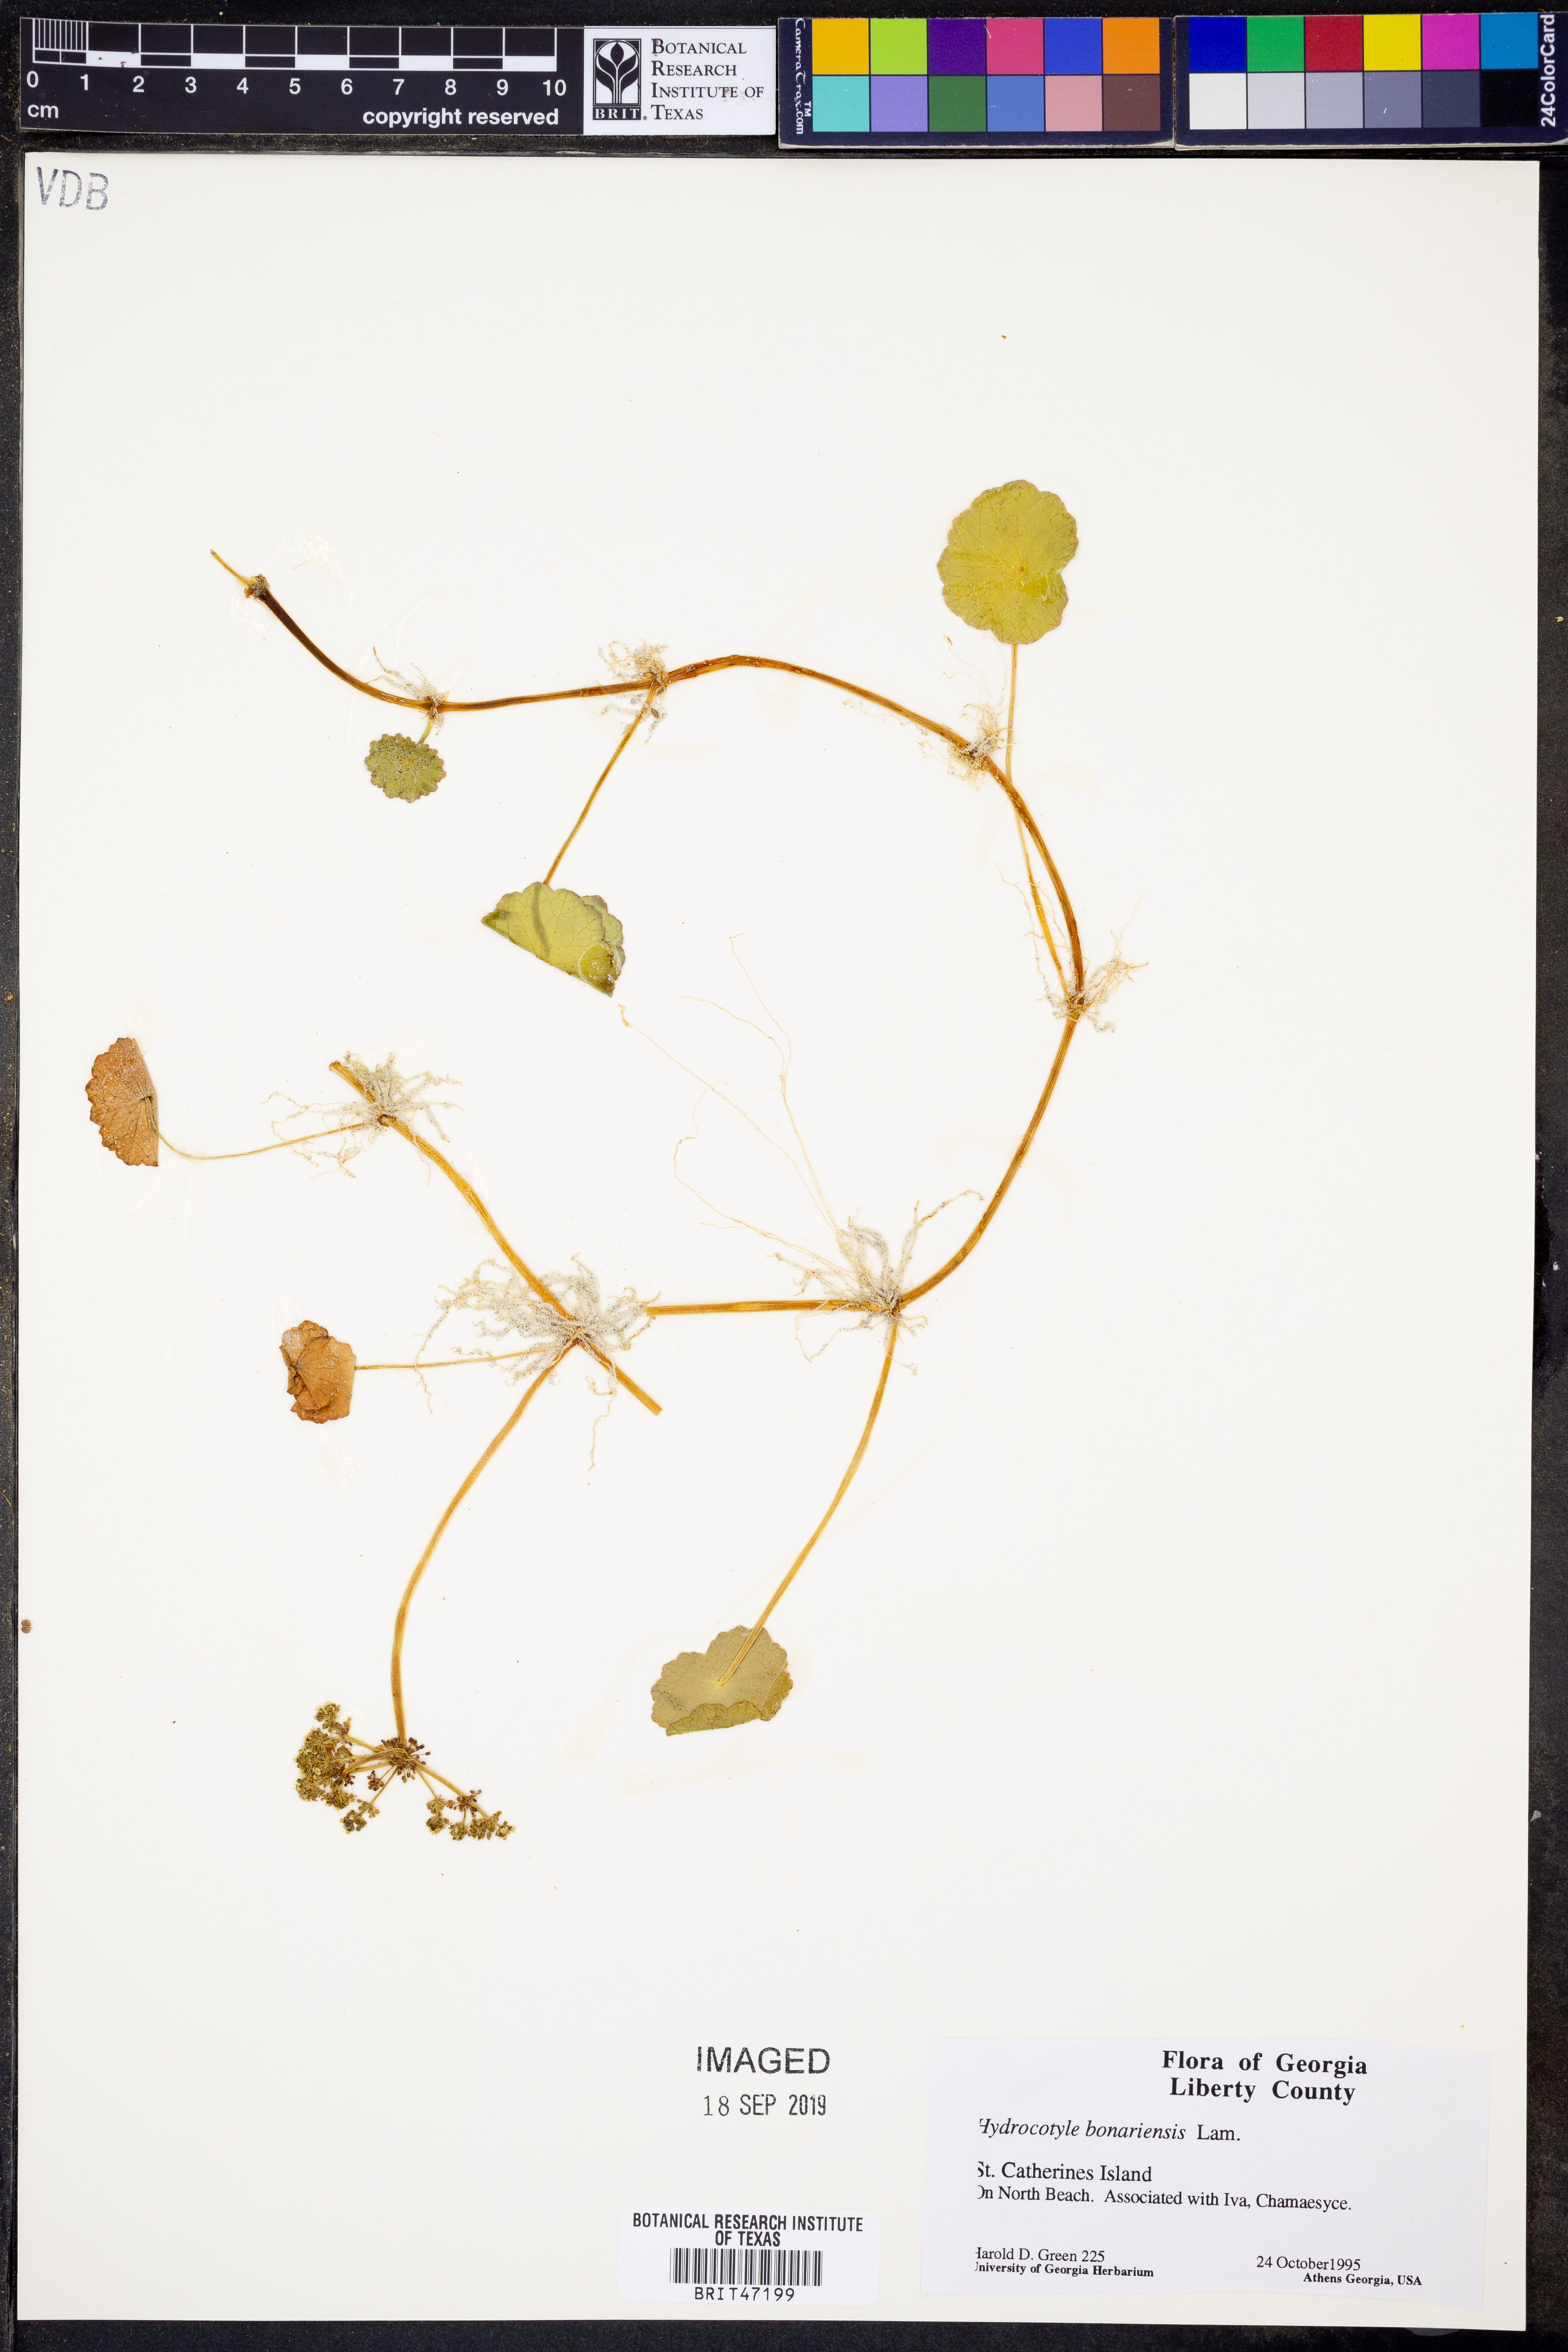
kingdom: Plantae
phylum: Tracheophyta
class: Magnoliopsida
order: Apiales
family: Araliaceae
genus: Hydrocotyle
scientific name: Hydrocotyle bonariensis
